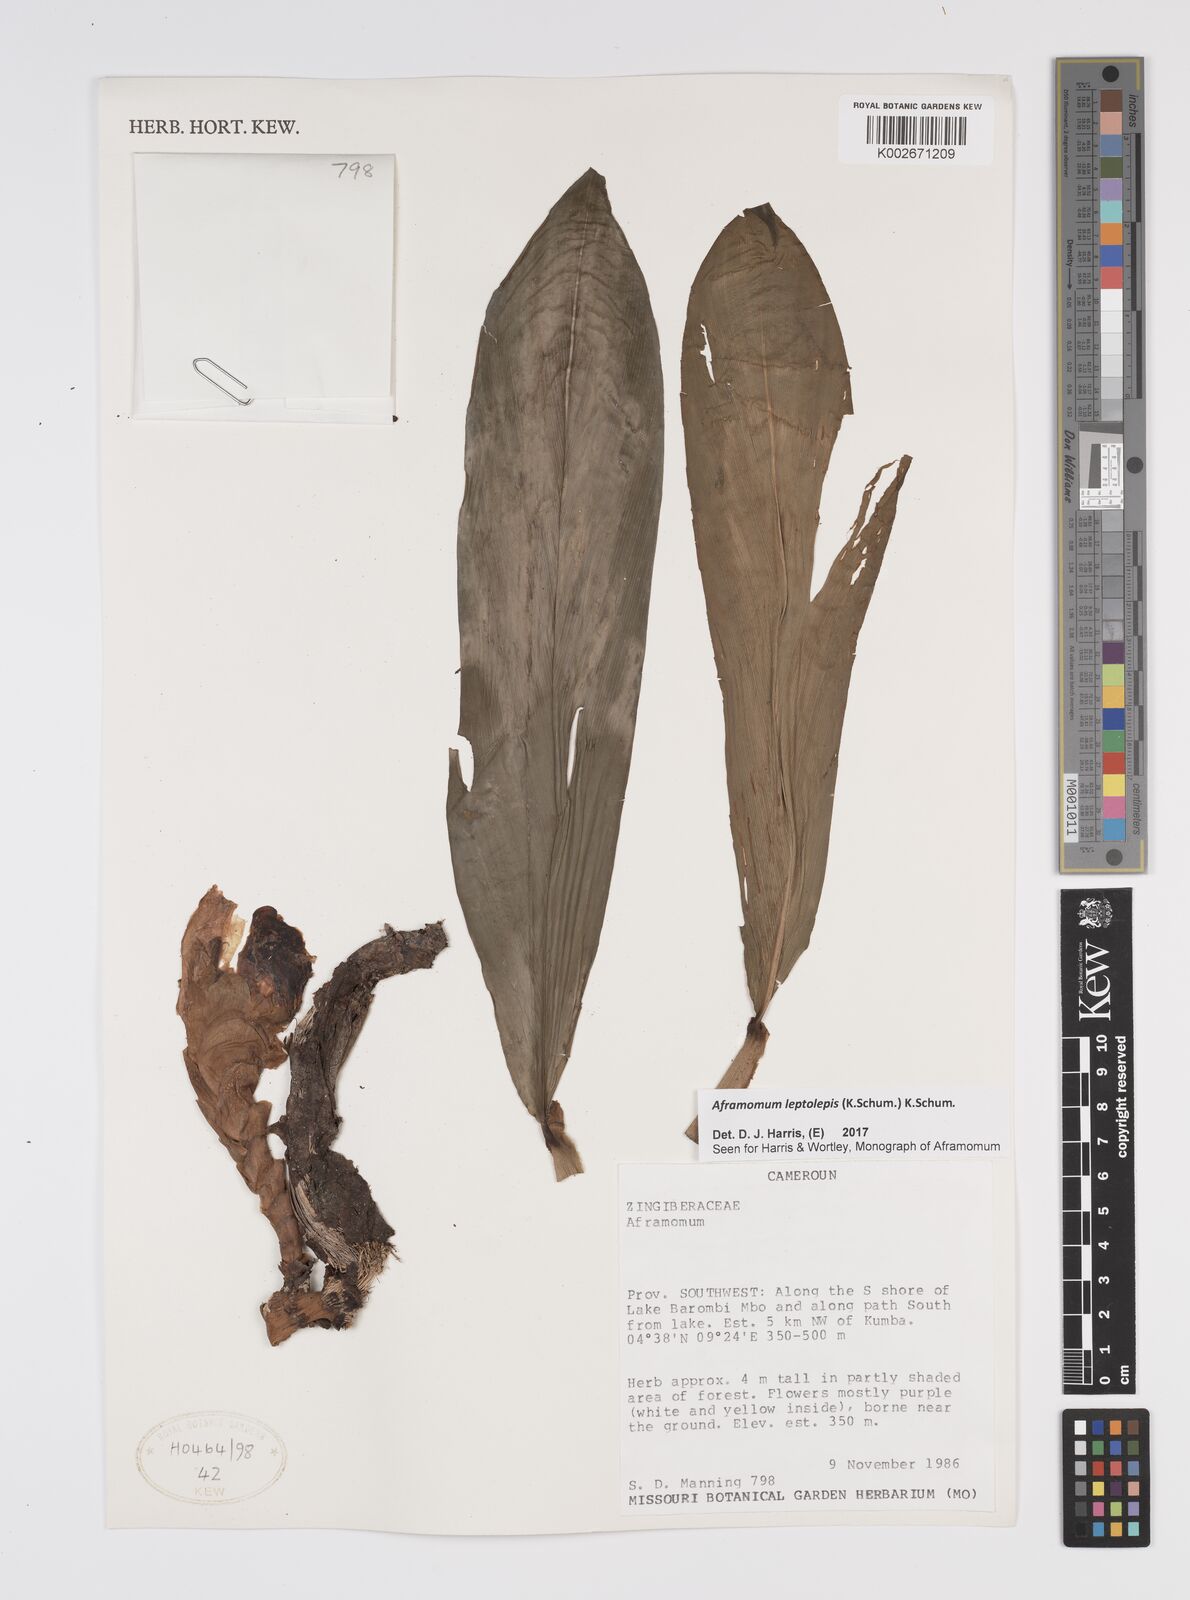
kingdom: Plantae
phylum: Tracheophyta
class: Liliopsida
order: Zingiberales
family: Zingiberaceae
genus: Aframomum
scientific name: Aframomum leptolepis
